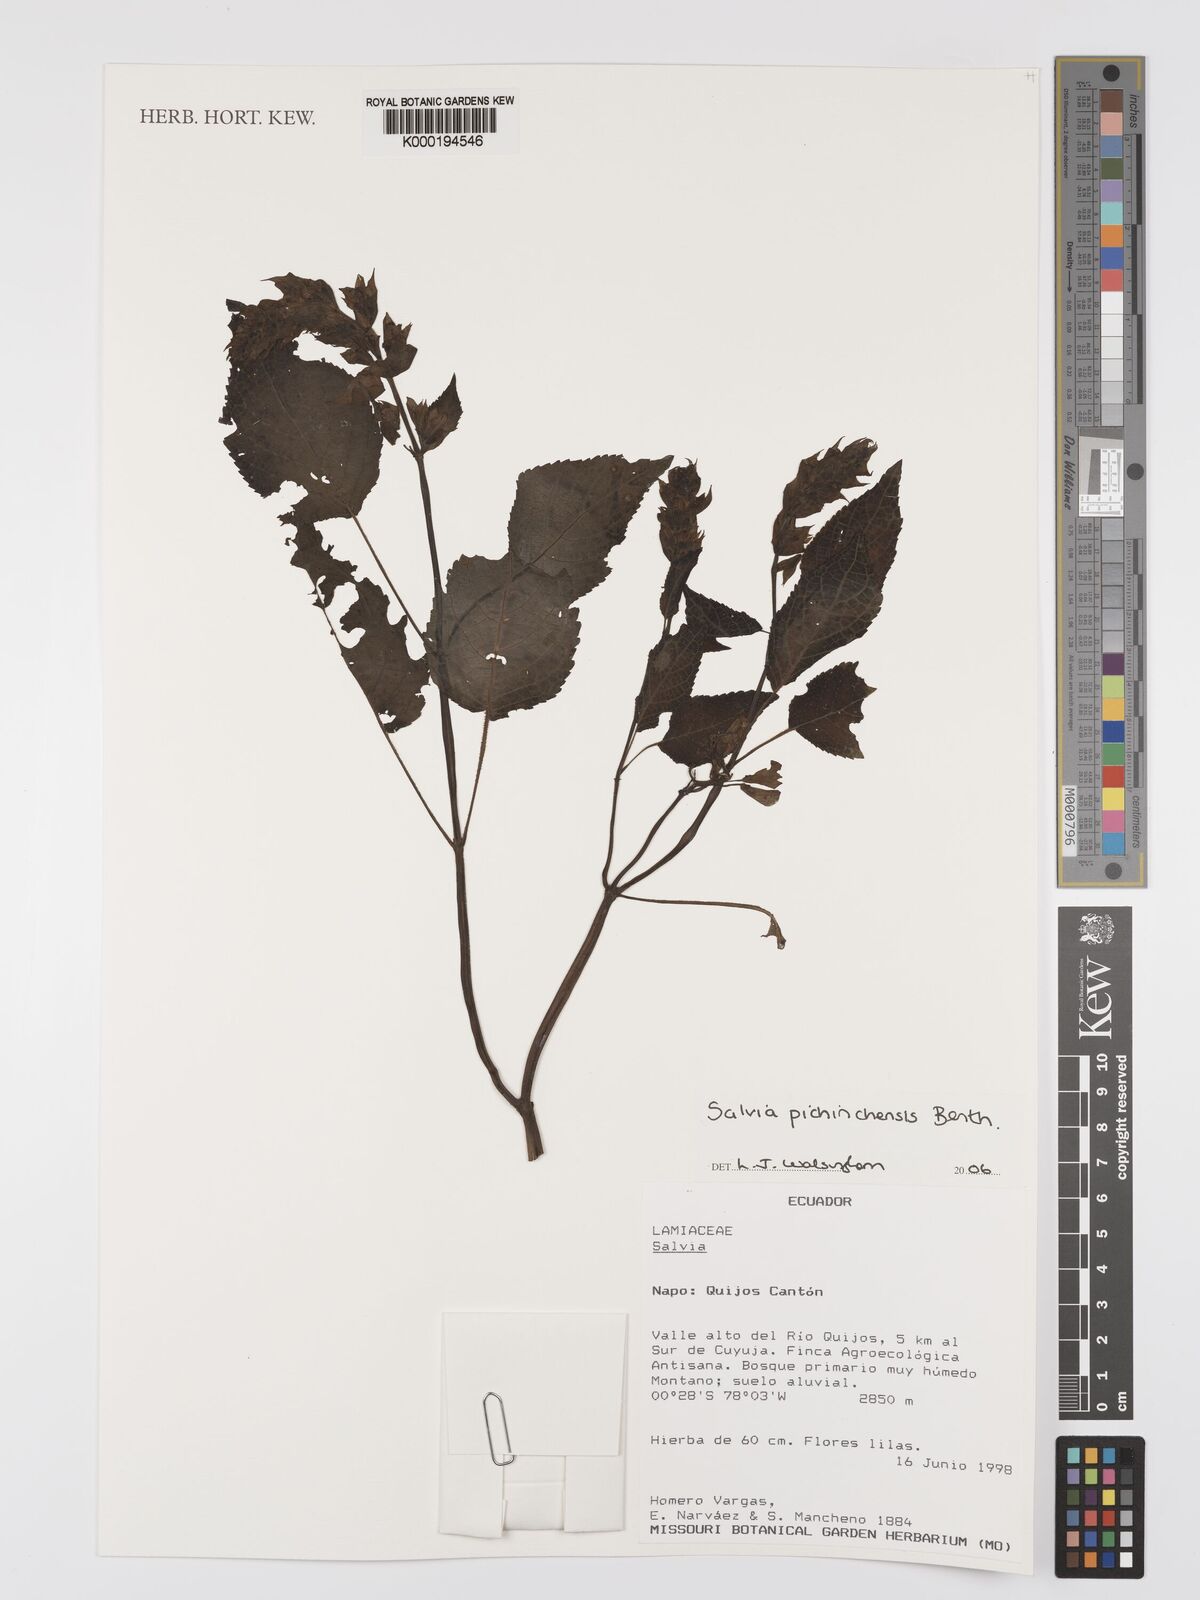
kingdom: Plantae
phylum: Tracheophyta
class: Magnoliopsida
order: Lamiales
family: Lamiaceae
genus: Salvia
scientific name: Salvia pichinchensis
